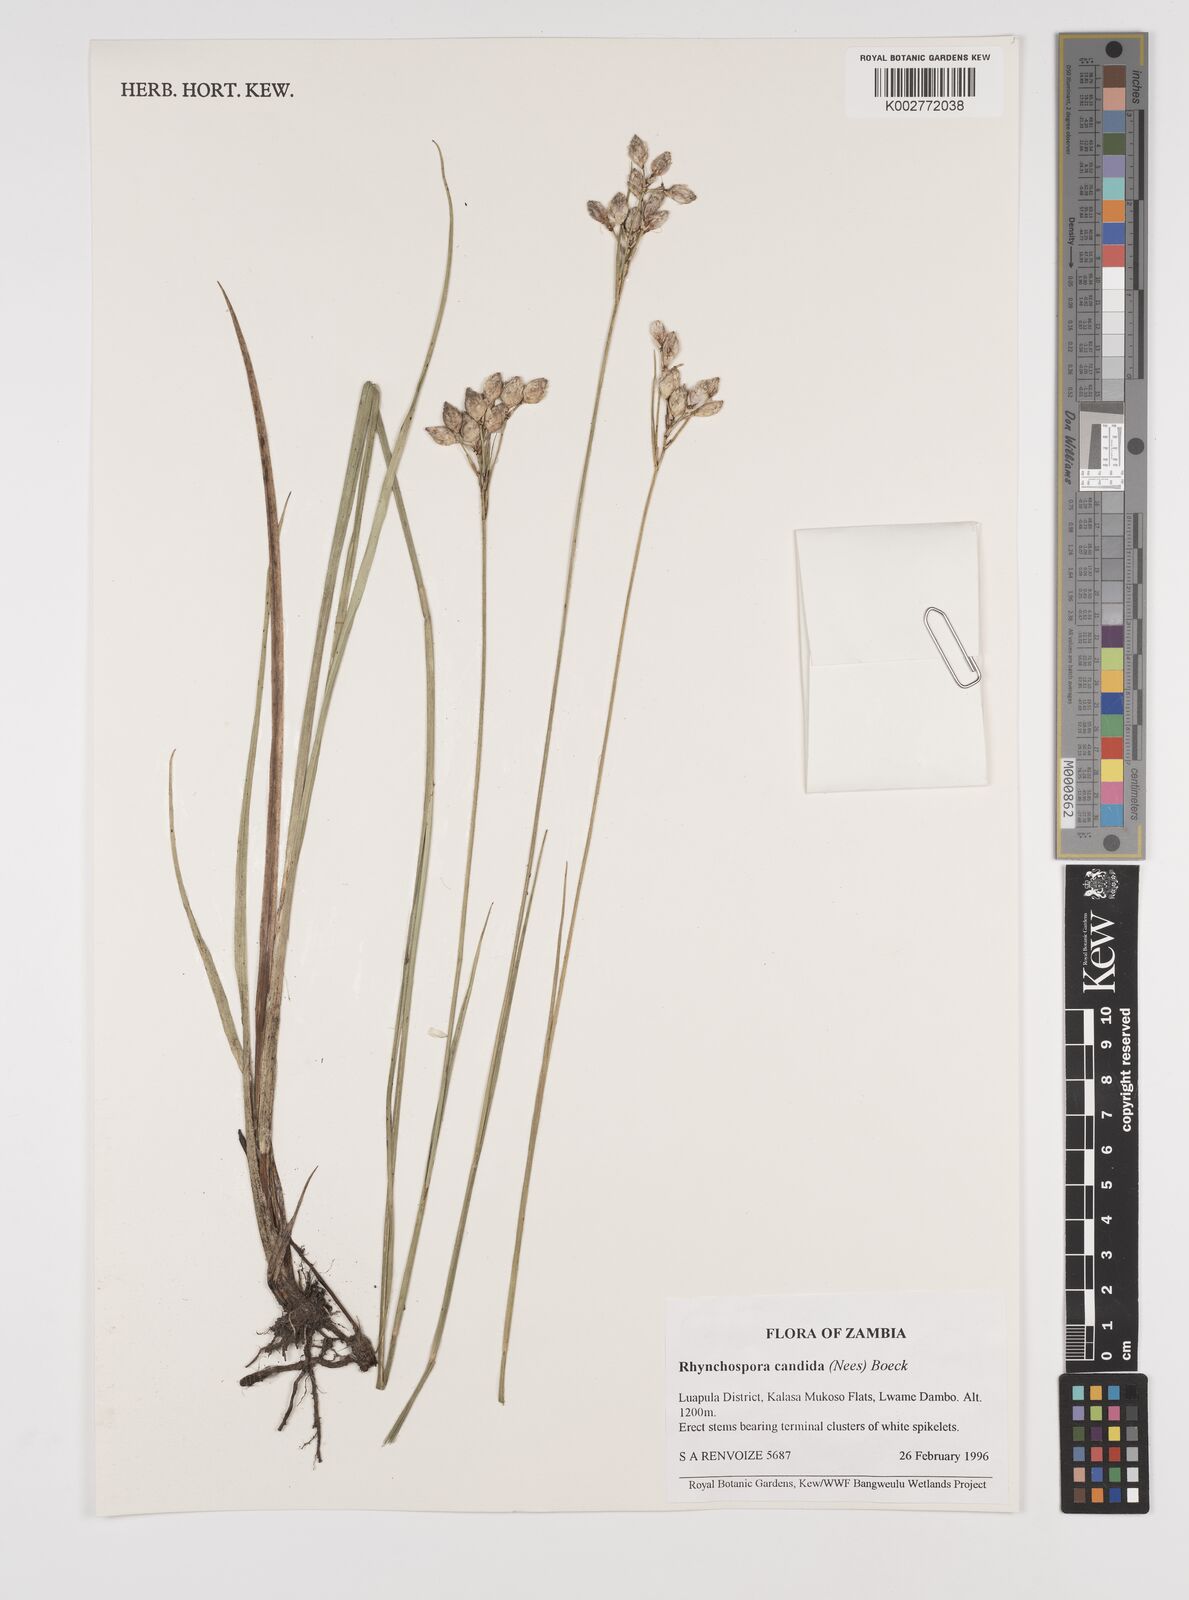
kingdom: Plantae
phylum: Tracheophyta
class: Liliopsida
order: Poales
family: Cyperaceae
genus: Rhynchospora
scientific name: Rhynchospora candida
